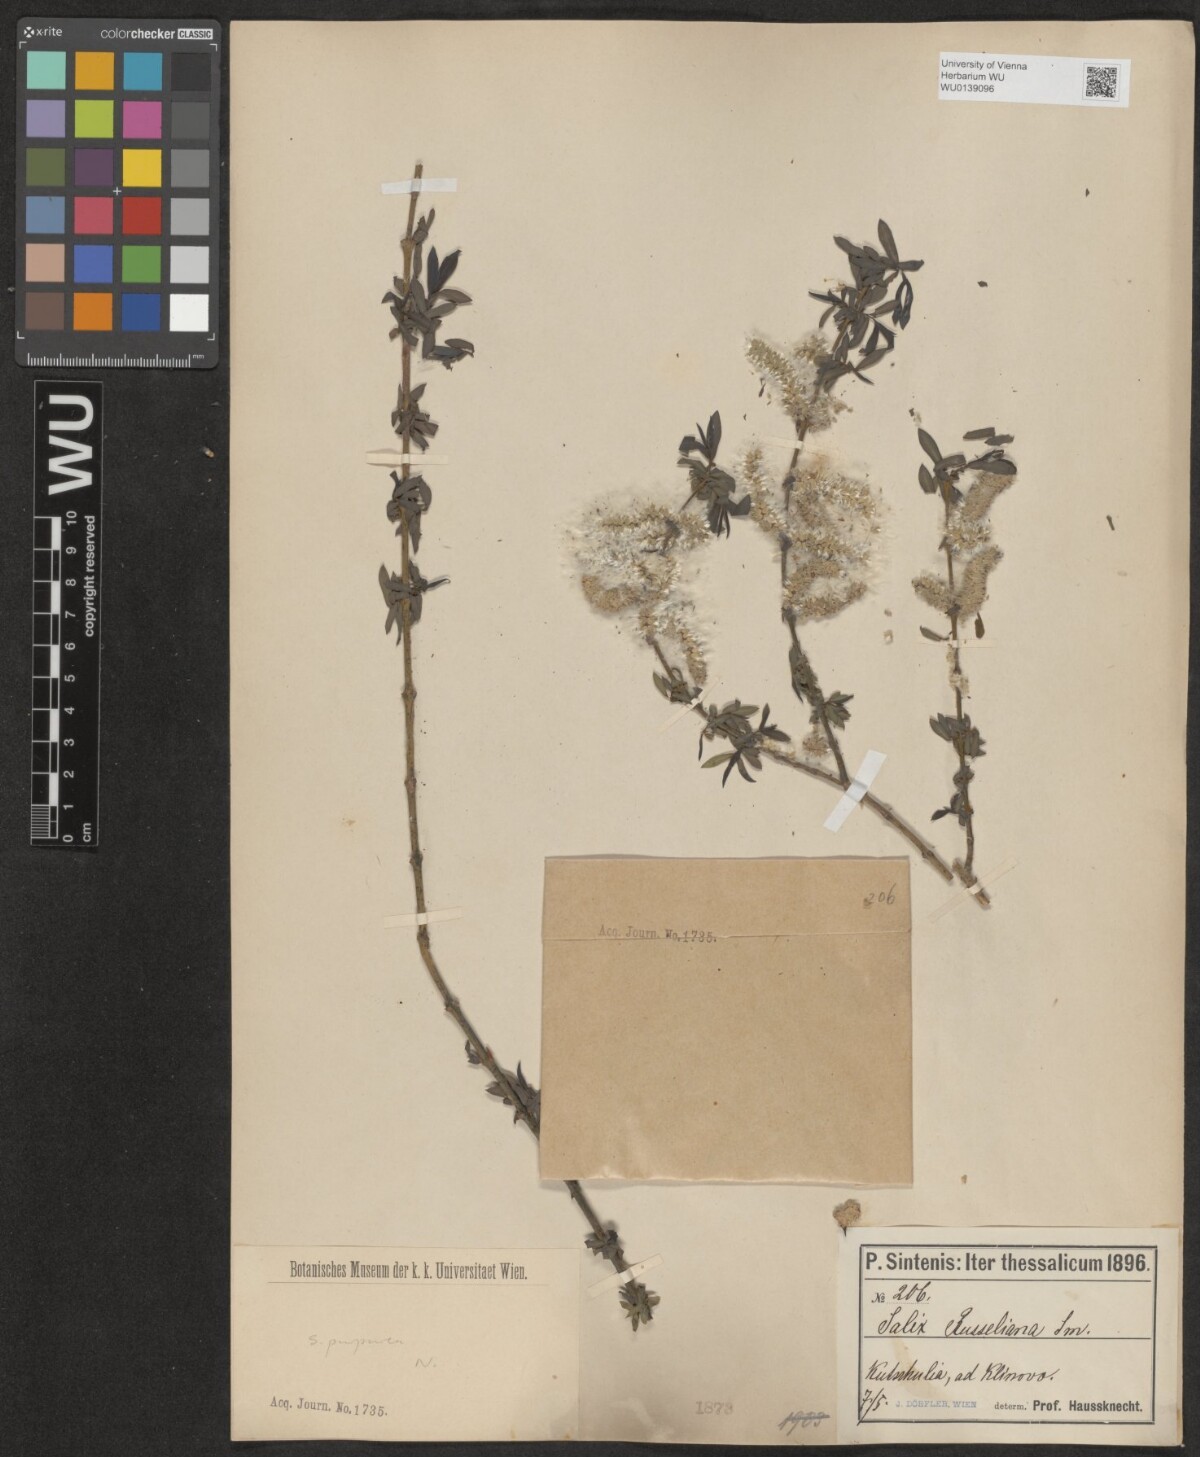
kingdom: Plantae
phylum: Tracheophyta
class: Magnoliopsida
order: Malpighiales
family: Salicaceae
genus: Salix
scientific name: Salix purpurea
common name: Purple willow
